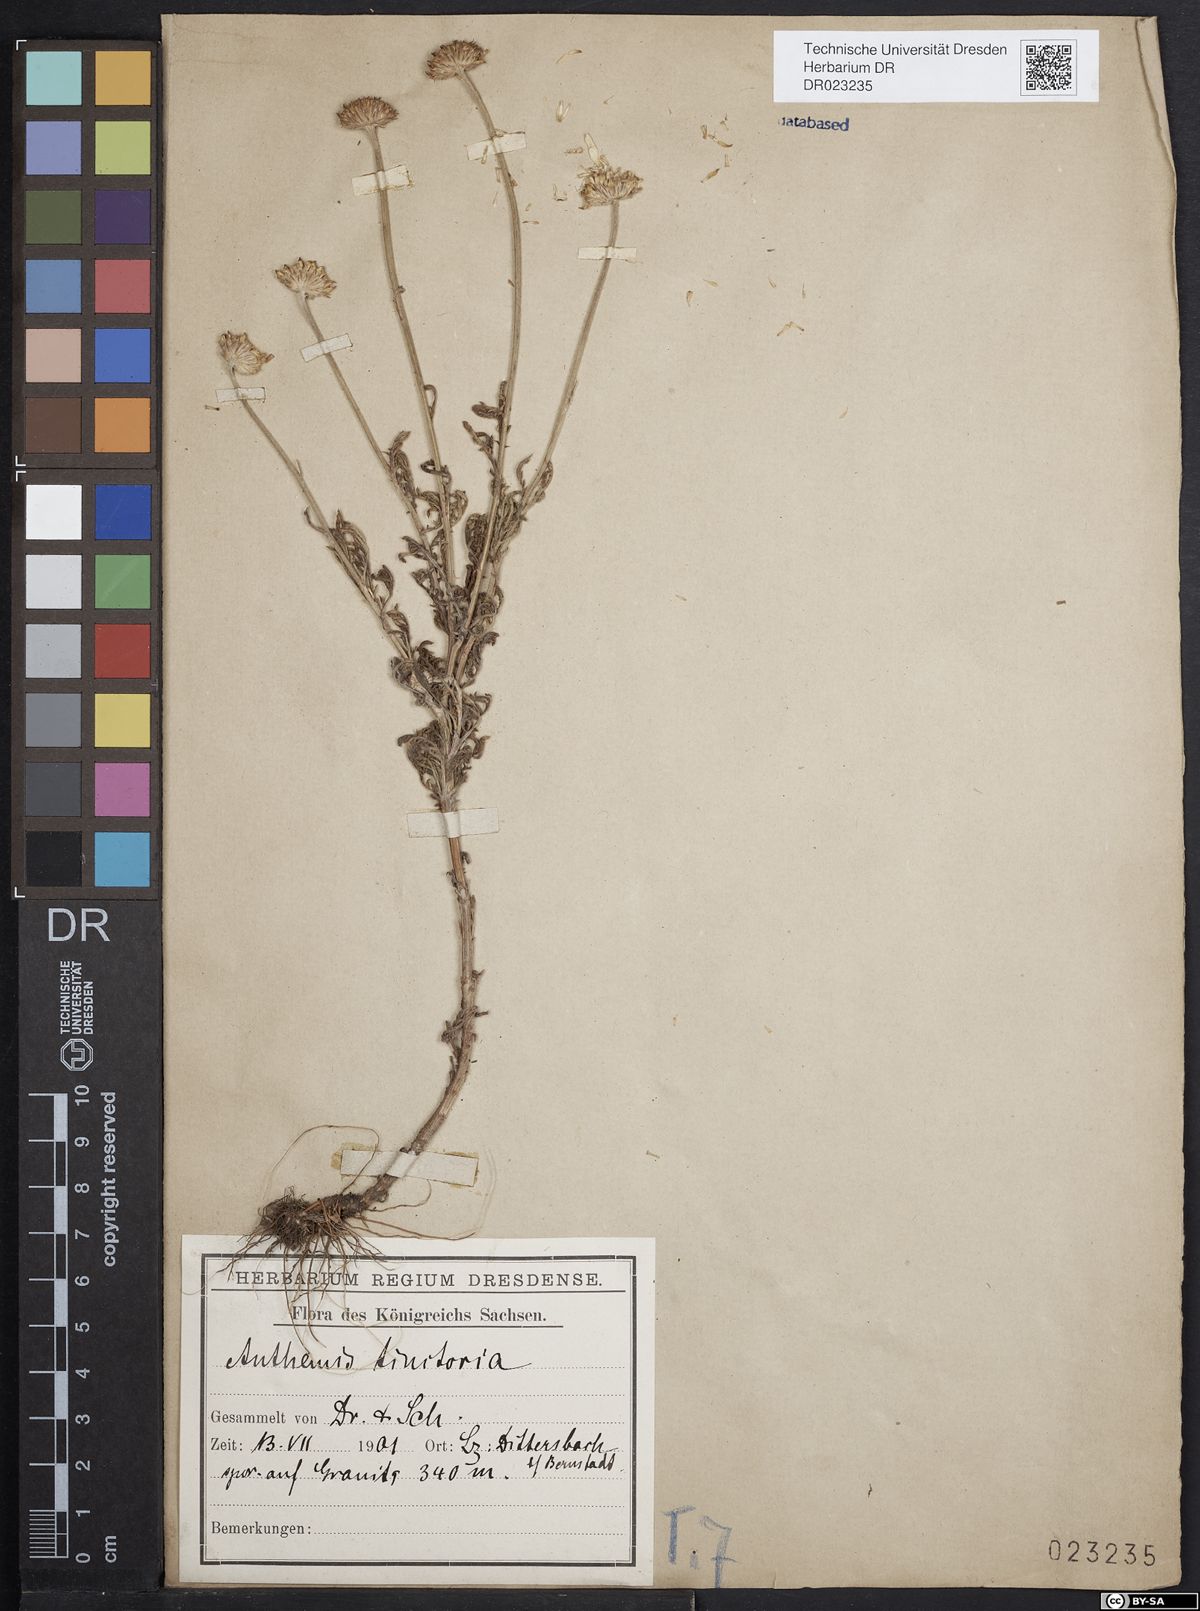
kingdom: Plantae
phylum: Tracheophyta
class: Magnoliopsida
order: Asterales
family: Asteraceae
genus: Cota
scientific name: Cota tinctoria
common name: Golden chamomile
